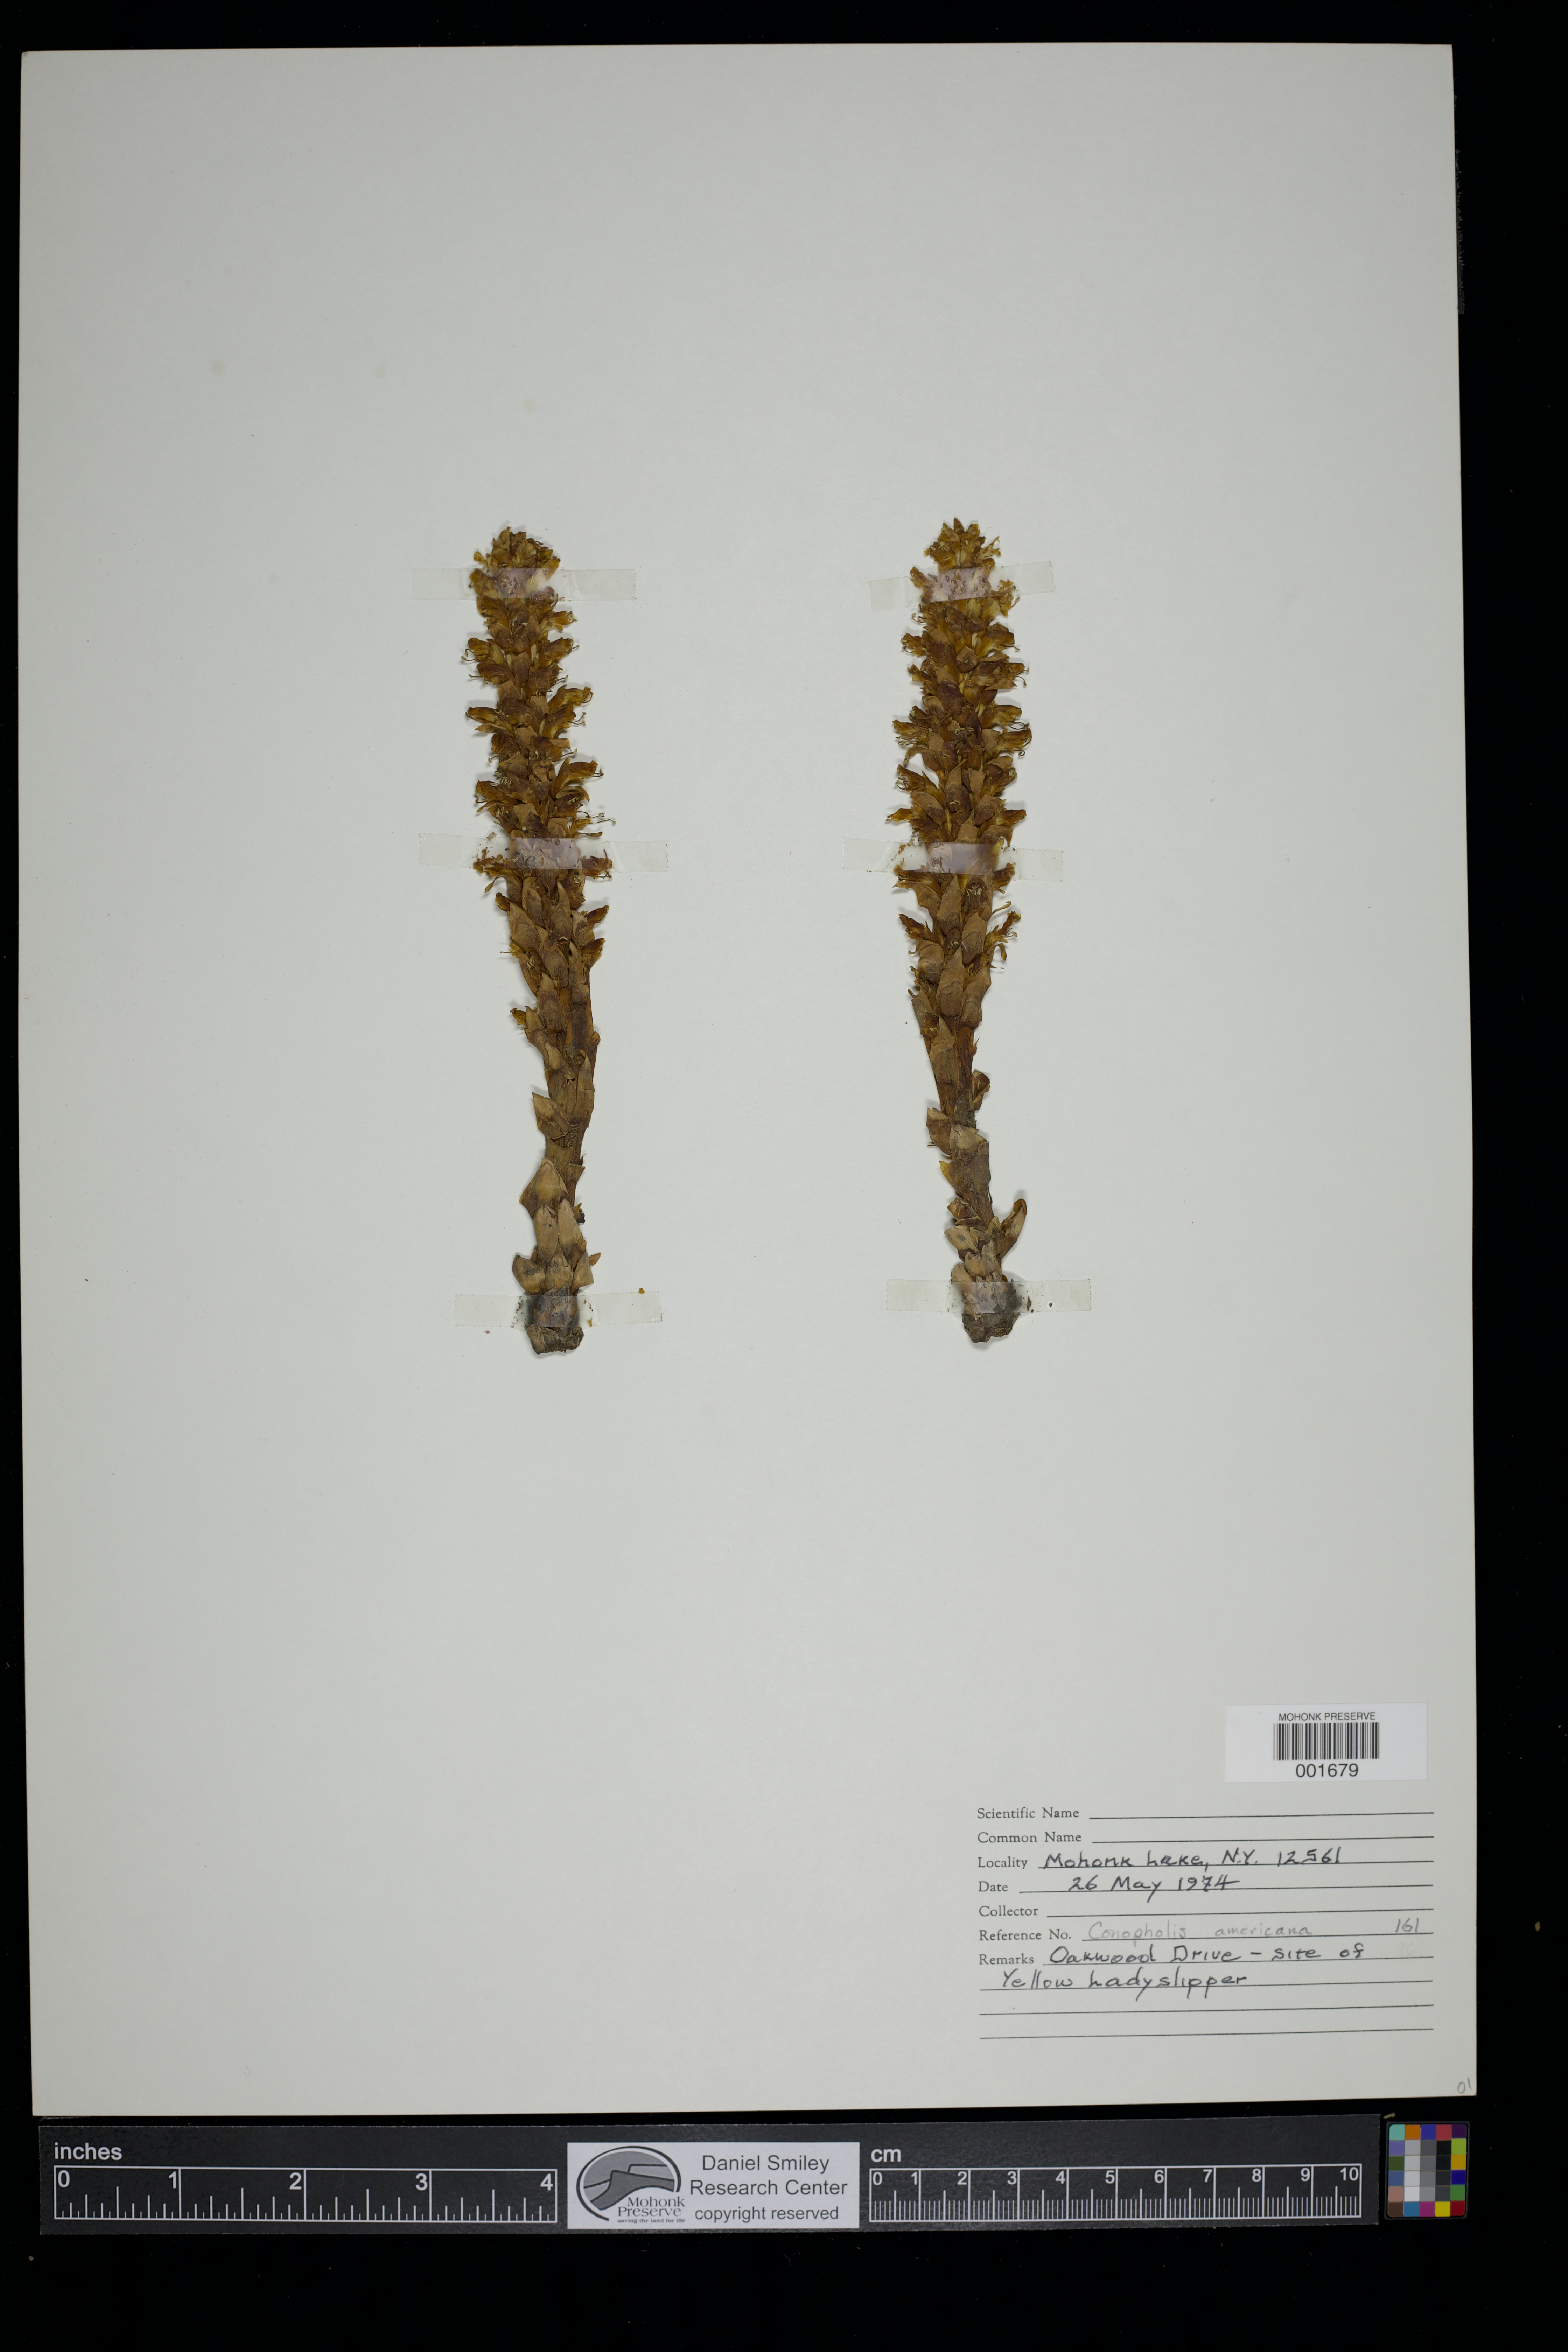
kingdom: Plantae
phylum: Tracheophyta
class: Magnoliopsida
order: Lamiales
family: Orobanchaceae
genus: Conopholis
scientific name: Conopholis americana
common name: American cancer-root
